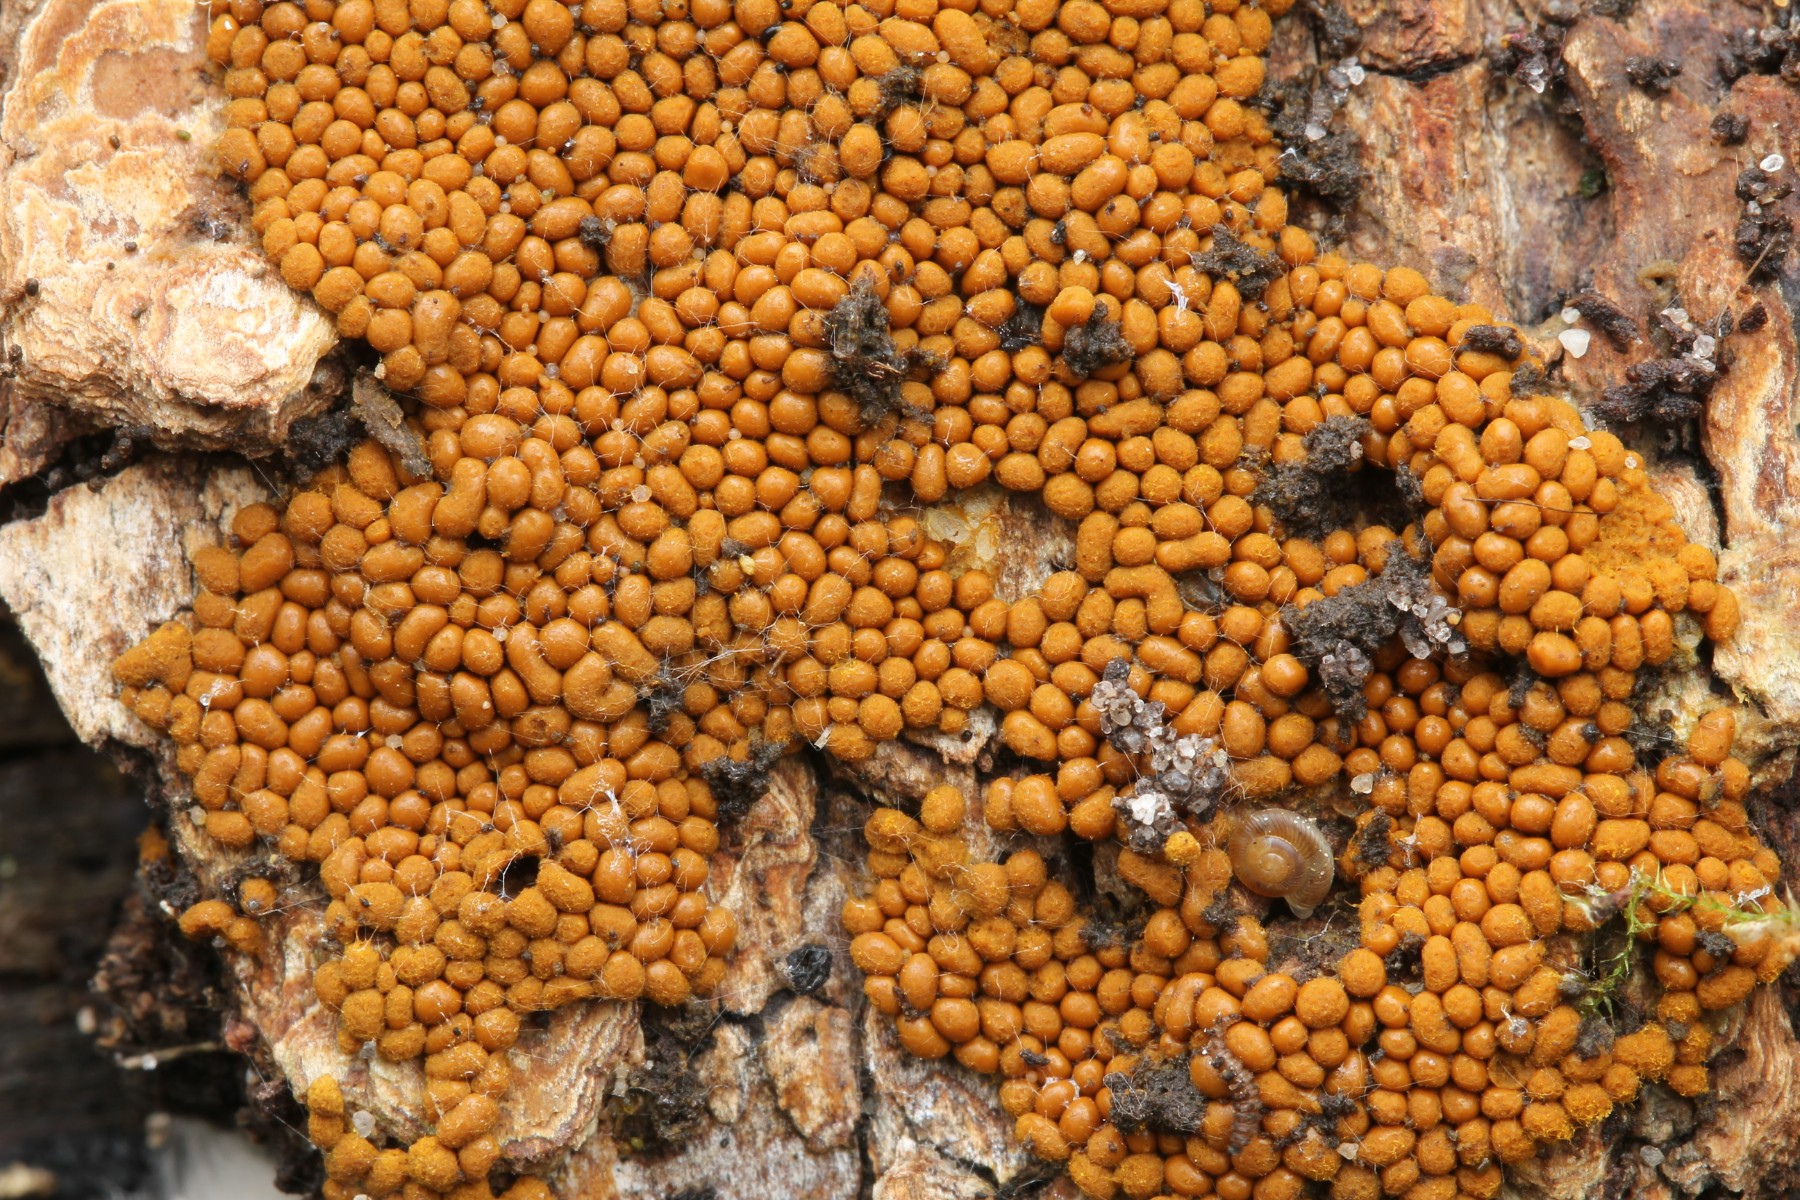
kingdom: Protozoa
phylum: Mycetozoa
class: Myxomycetes
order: Trichiales
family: Trichiaceae
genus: Trichia
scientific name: Trichia
